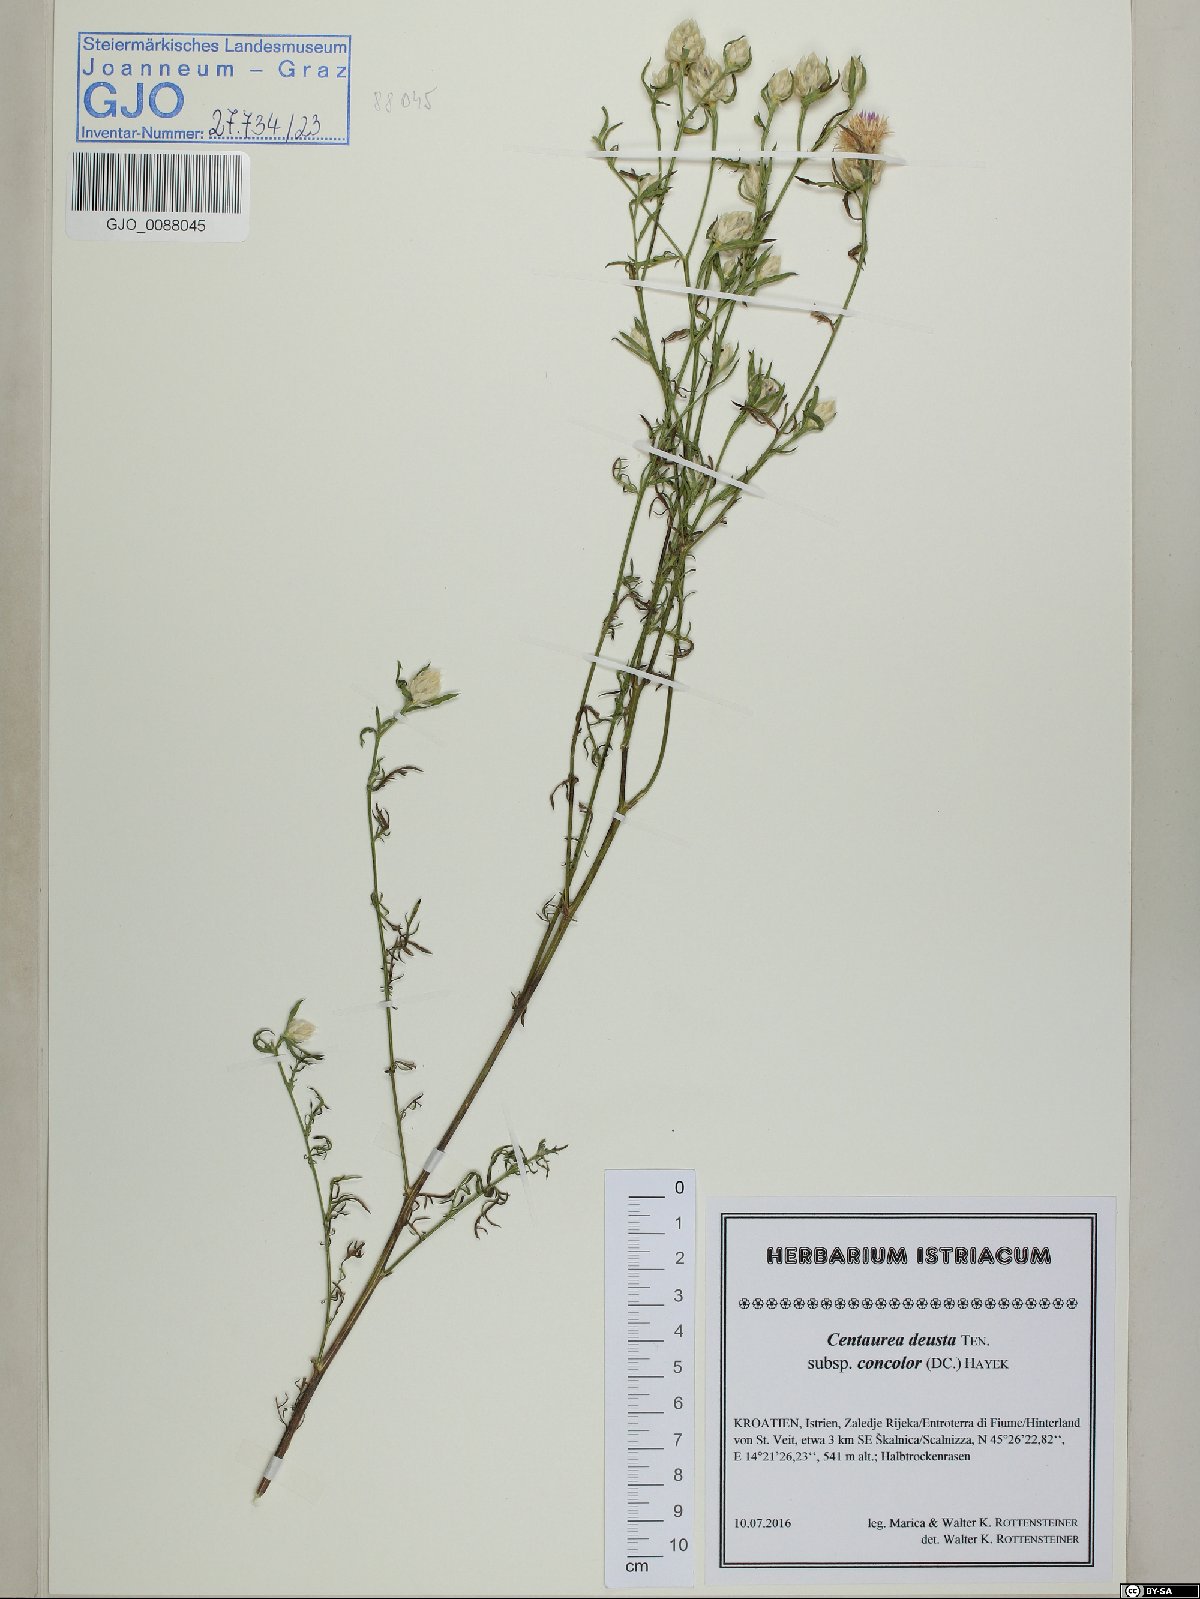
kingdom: Plantae
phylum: Tracheophyta
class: Magnoliopsida
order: Asterales
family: Asteraceae
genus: Centaurea
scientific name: Centaurea deusta
